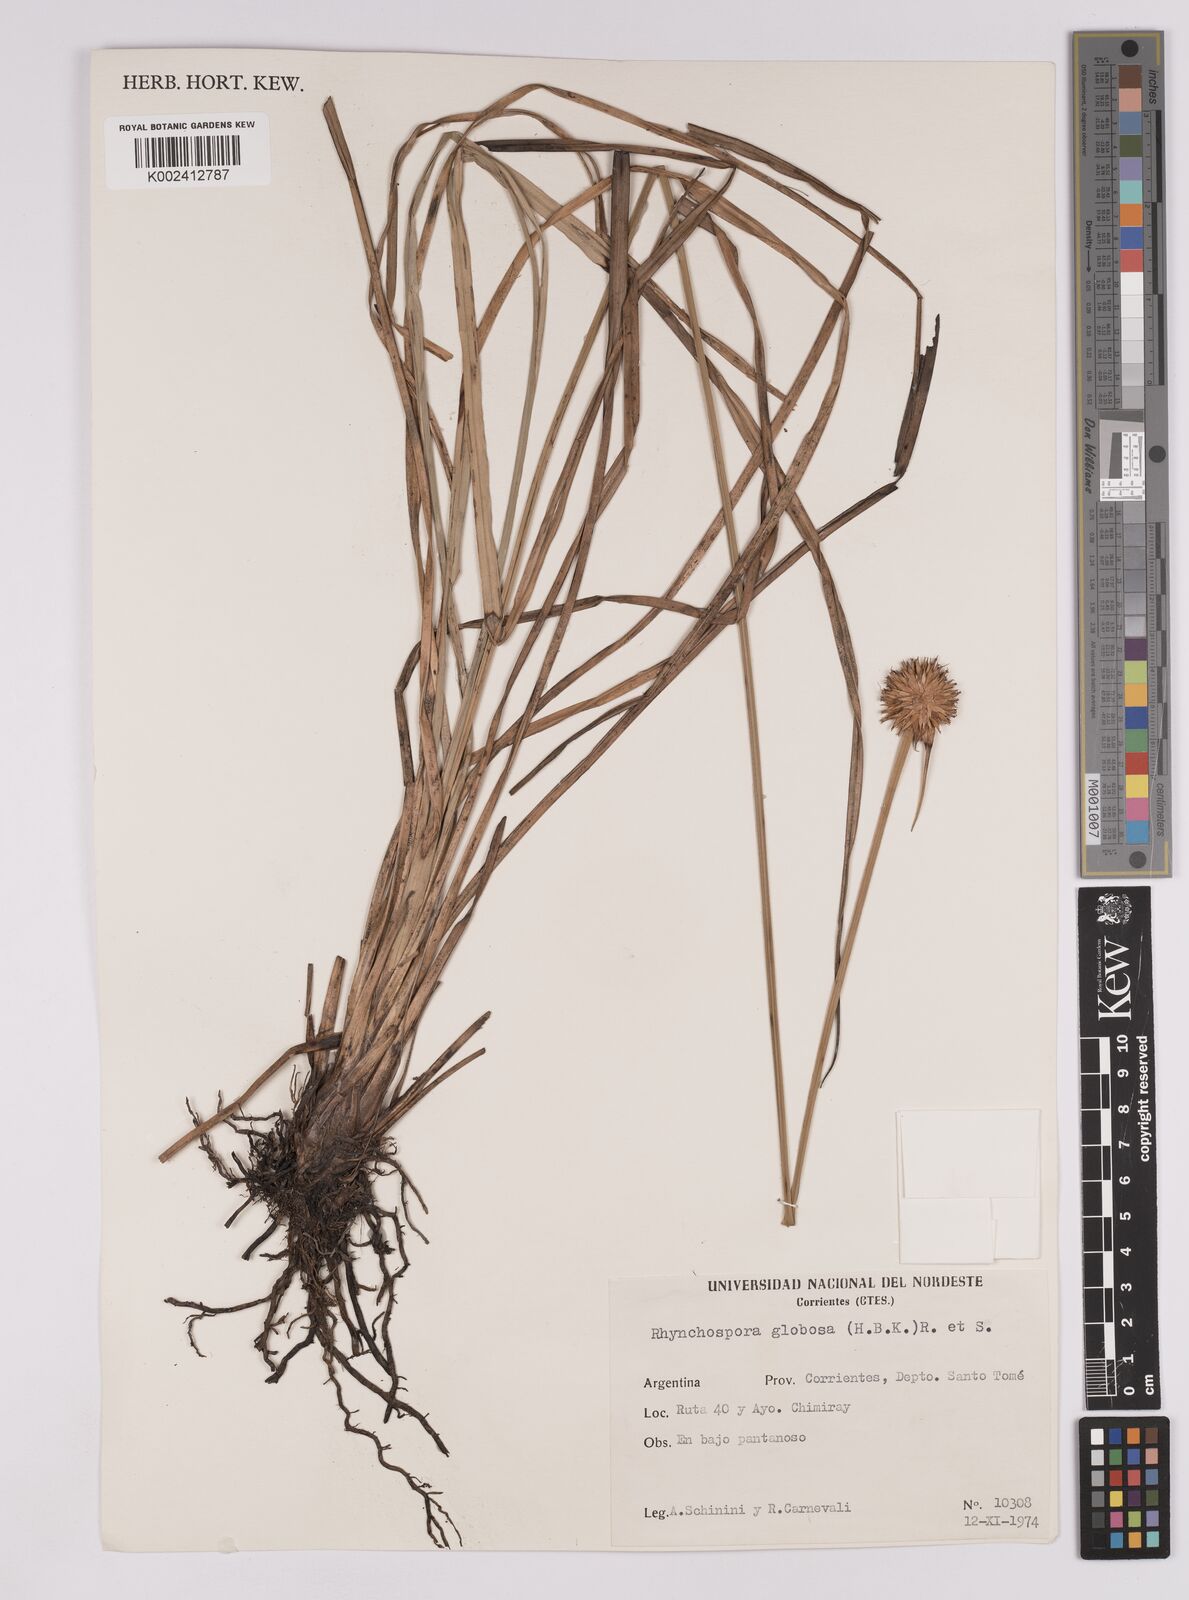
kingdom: Plantae
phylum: Tracheophyta
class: Liliopsida
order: Poales
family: Cyperaceae
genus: Rhynchospora
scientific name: Rhynchospora globosa
